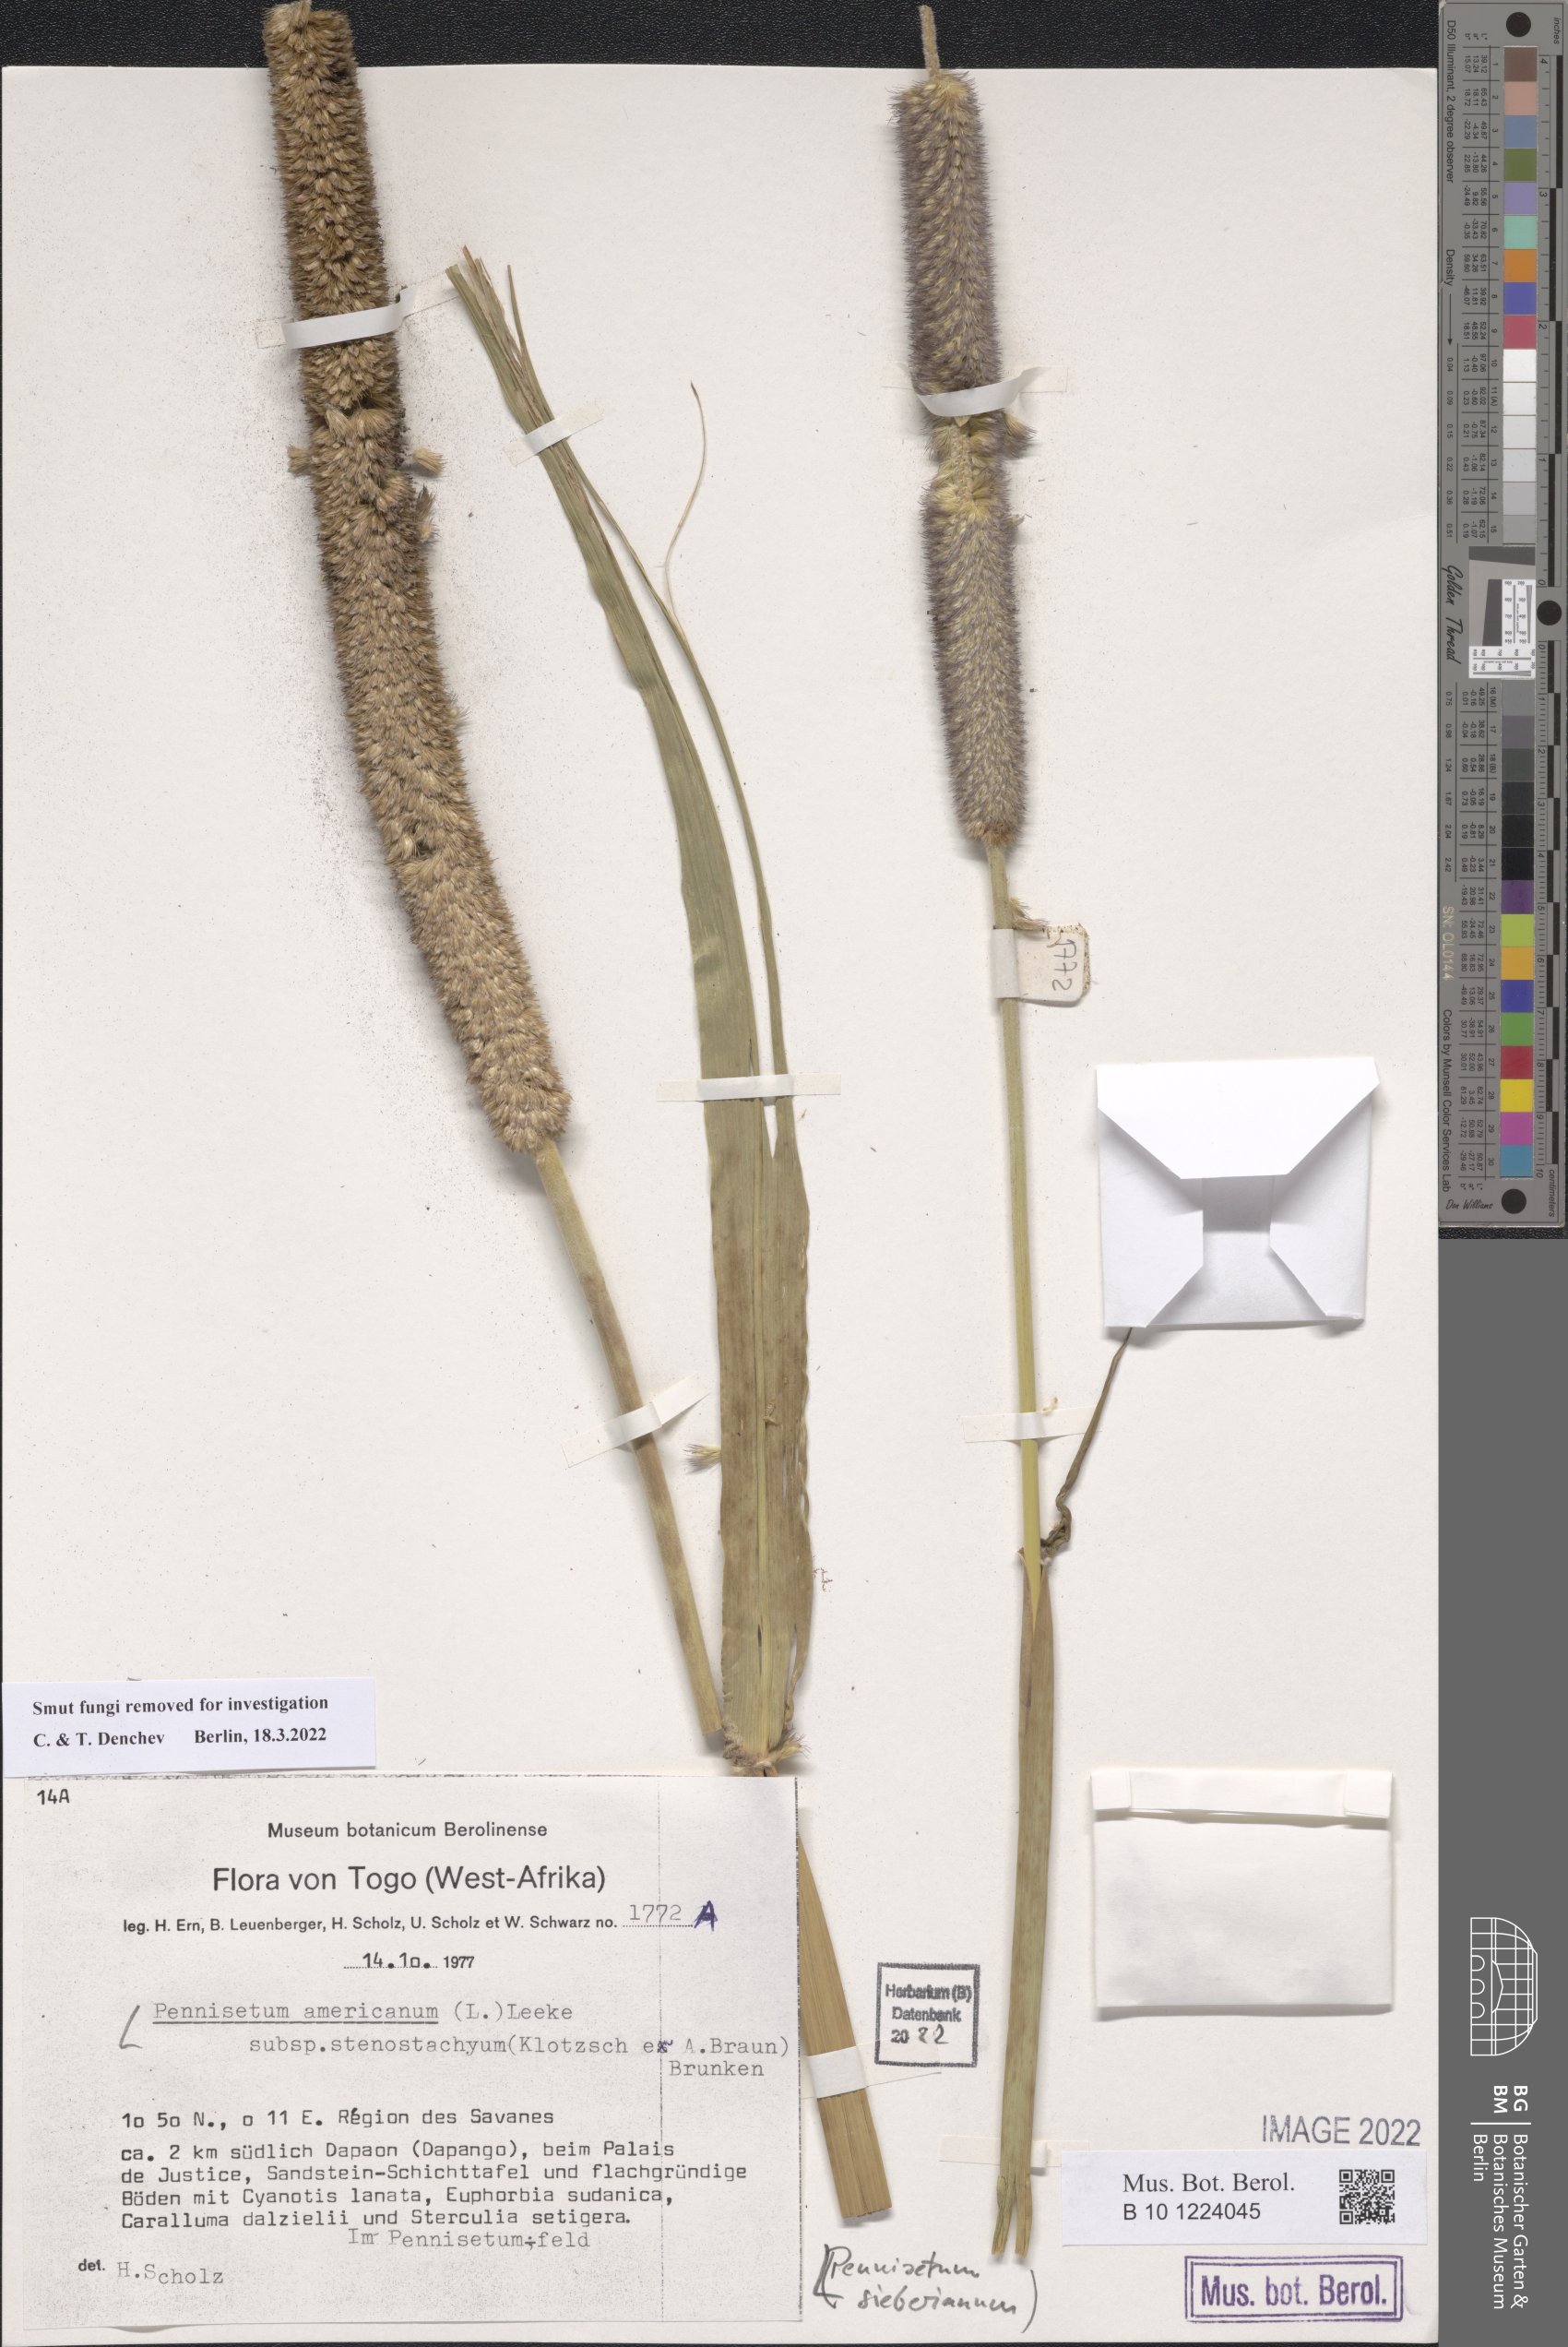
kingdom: Plantae
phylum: Tracheophyta
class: Liliopsida
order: Poales
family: Poaceae
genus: Cenchrus
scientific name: Cenchrus sieberianus
